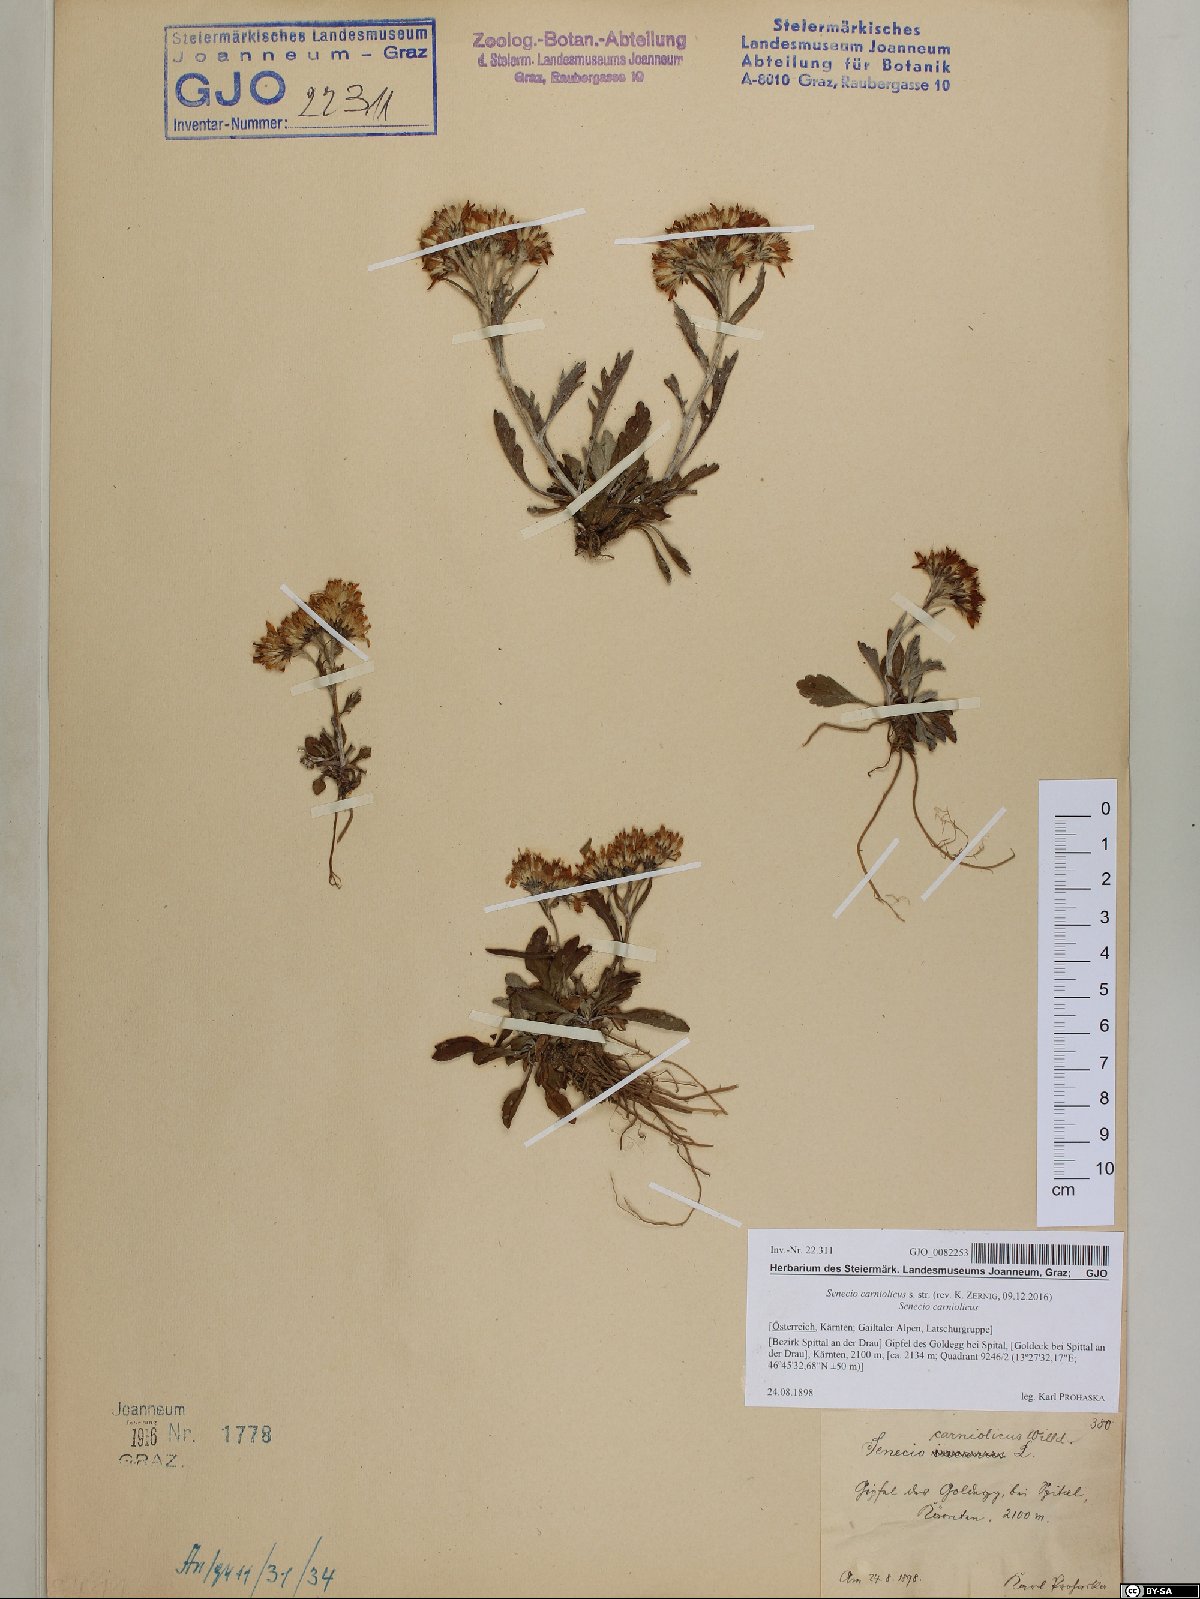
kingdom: Plantae
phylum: Tracheophyta
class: Magnoliopsida
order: Asterales
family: Asteraceae
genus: Jacobaea
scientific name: Jacobaea carniolica
